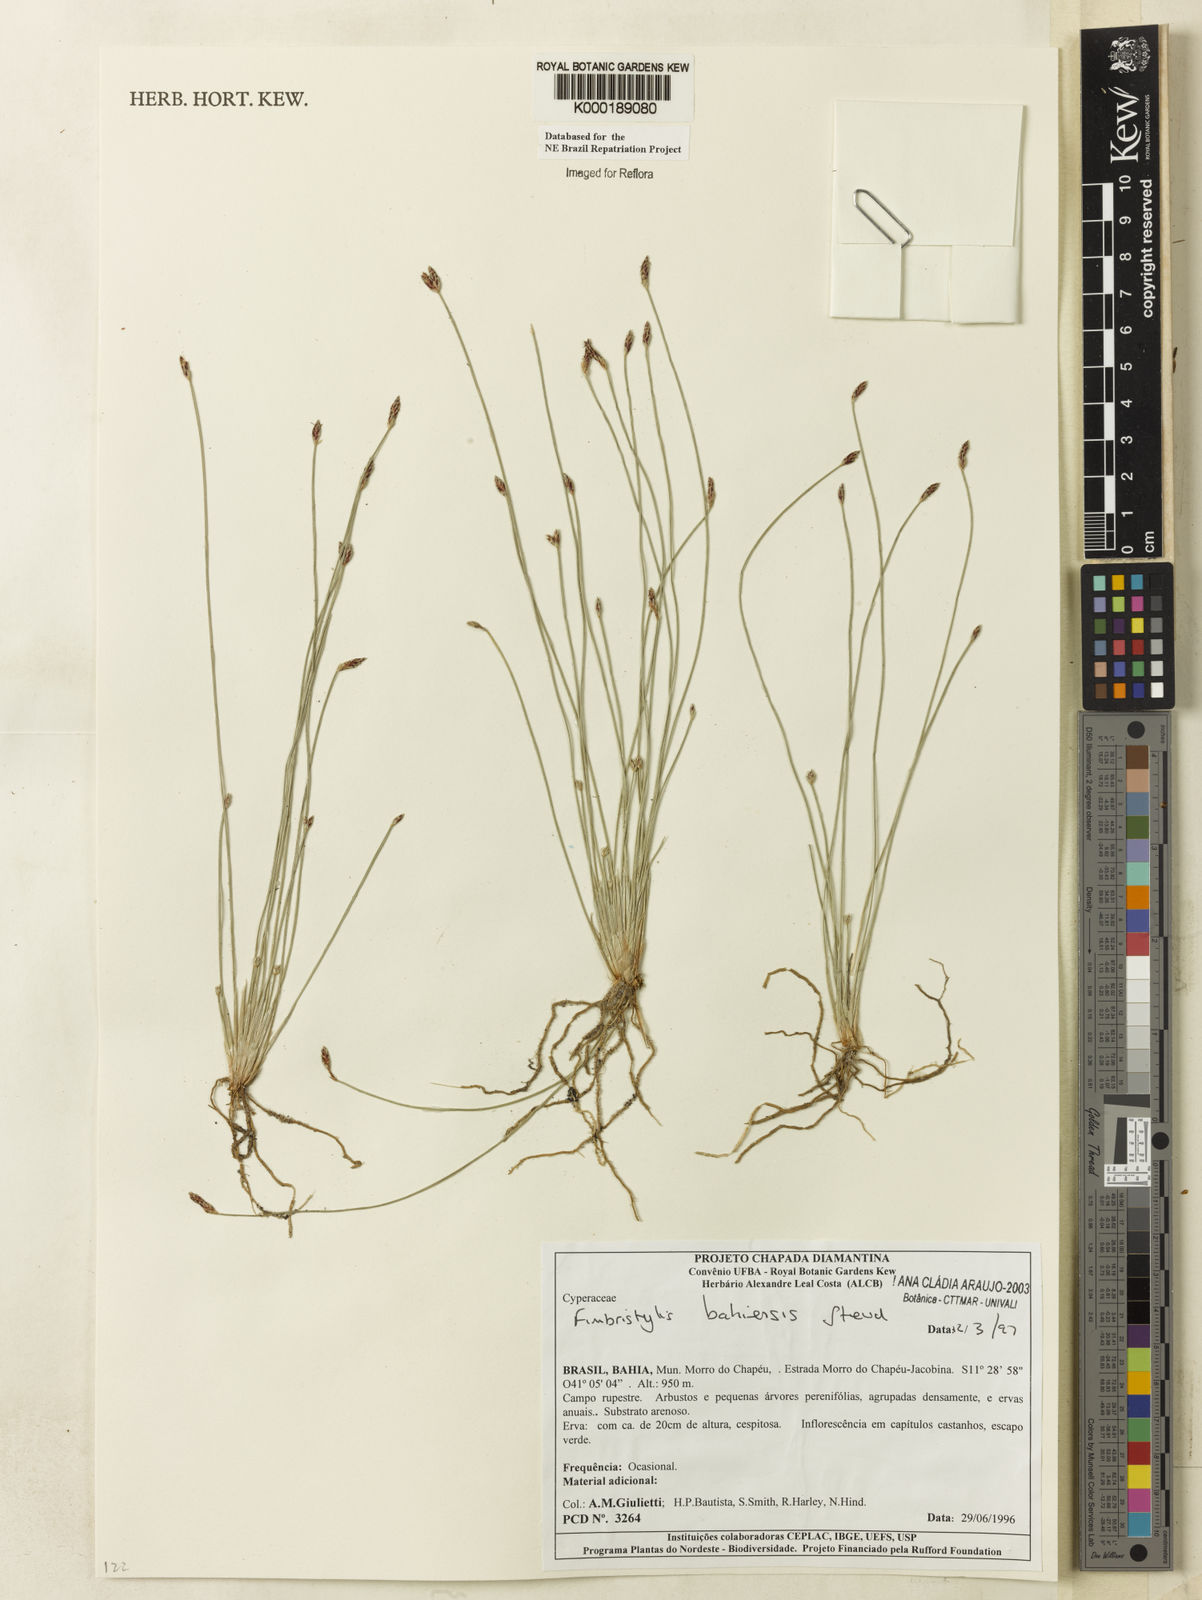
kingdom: Plantae
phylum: Tracheophyta
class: Liliopsida
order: Poales
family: Cyperaceae
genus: Fimbristylis
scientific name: Fimbristylis bahiensis
